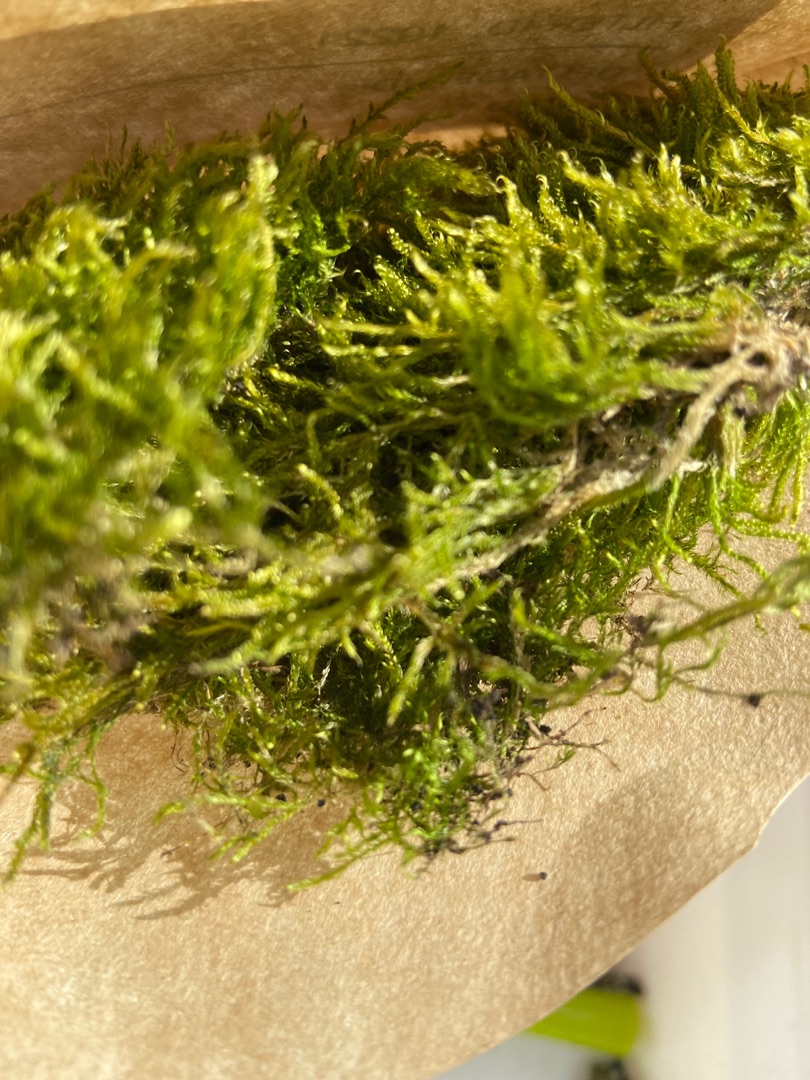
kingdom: Plantae
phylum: Bryophyta
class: Bryopsida
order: Hypnales
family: Hypnaceae
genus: Hypnum
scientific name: Hypnum
